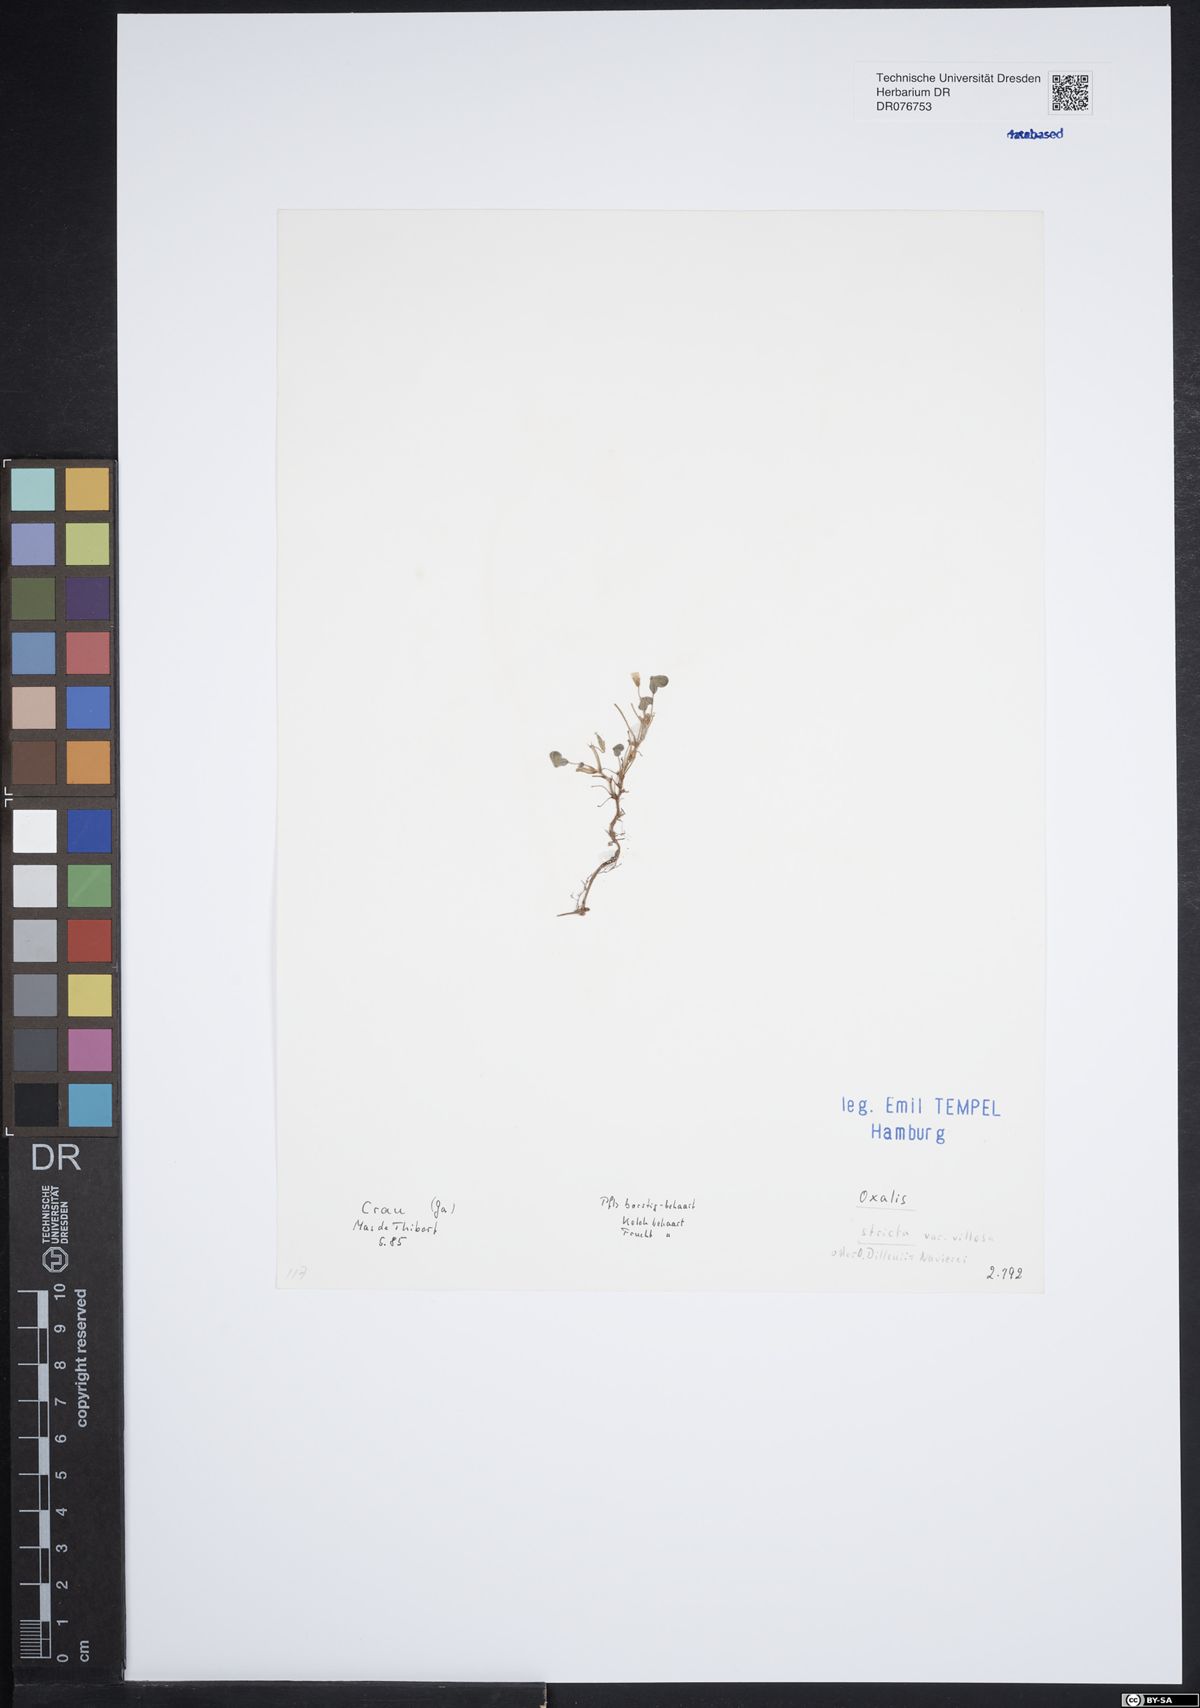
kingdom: Plantae
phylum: Tracheophyta
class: Magnoliopsida
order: Oxalidales
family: Oxalidaceae
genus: Oxalis
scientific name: Oxalis stricta
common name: Upright yellow-sorrel
